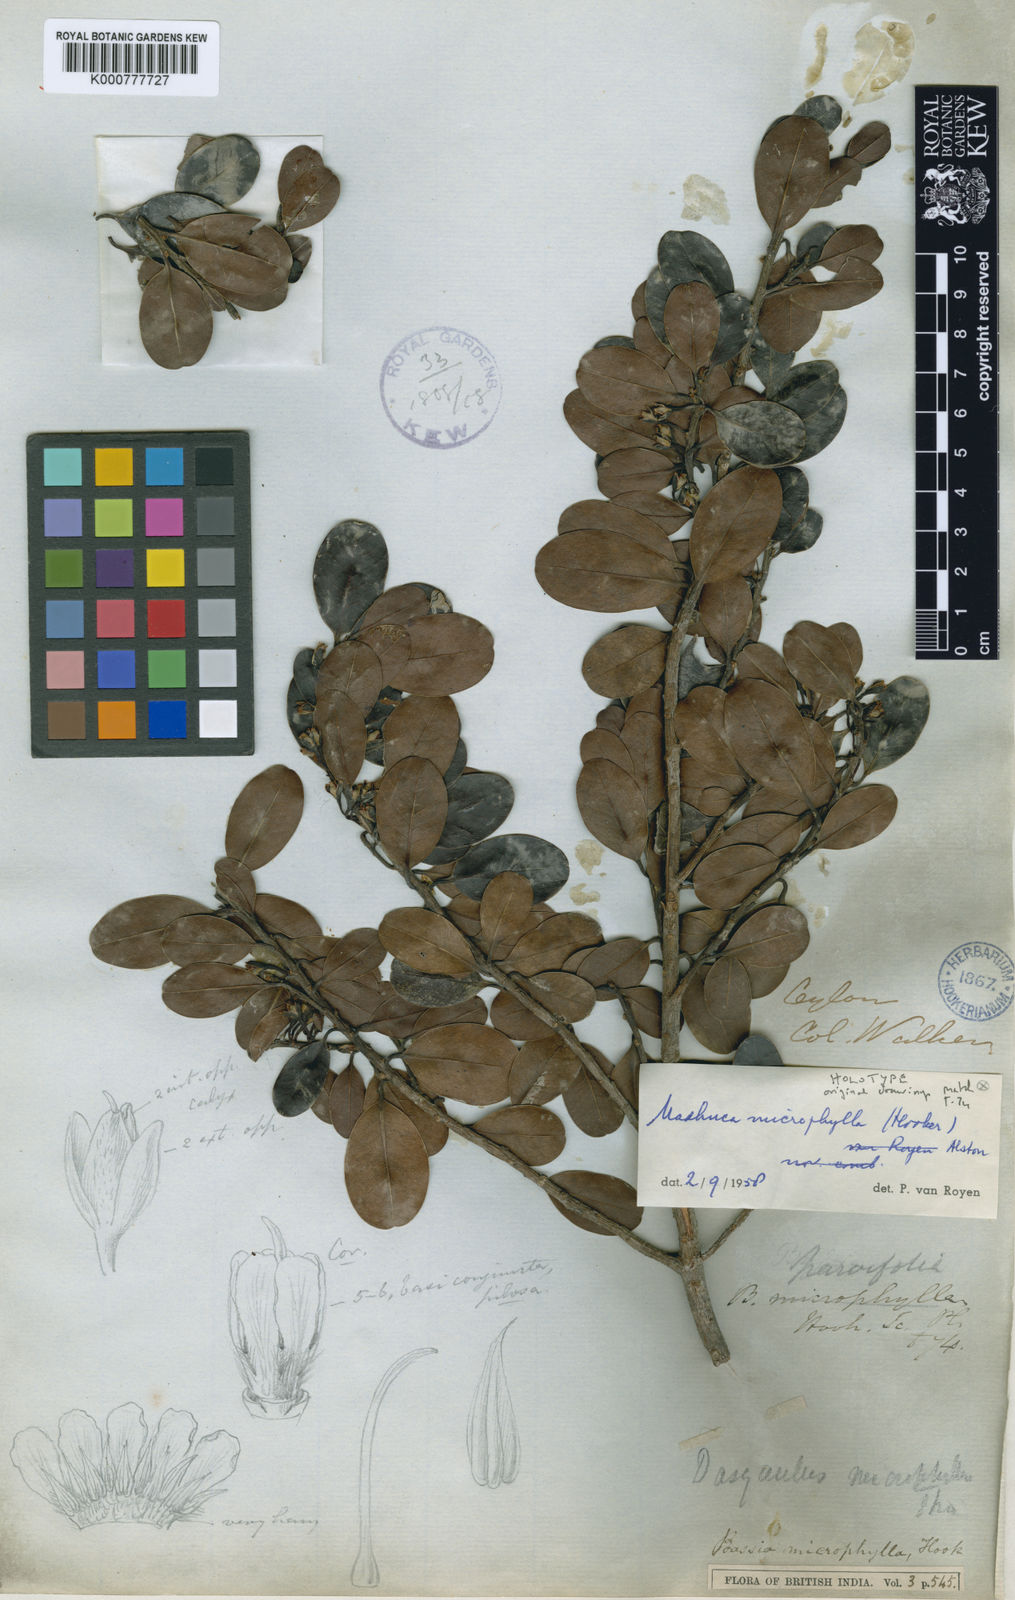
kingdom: Plantae
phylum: Tracheophyta
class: Magnoliopsida
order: Ericales
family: Sapotaceae
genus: Madhuca
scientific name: Madhuca microphylla
